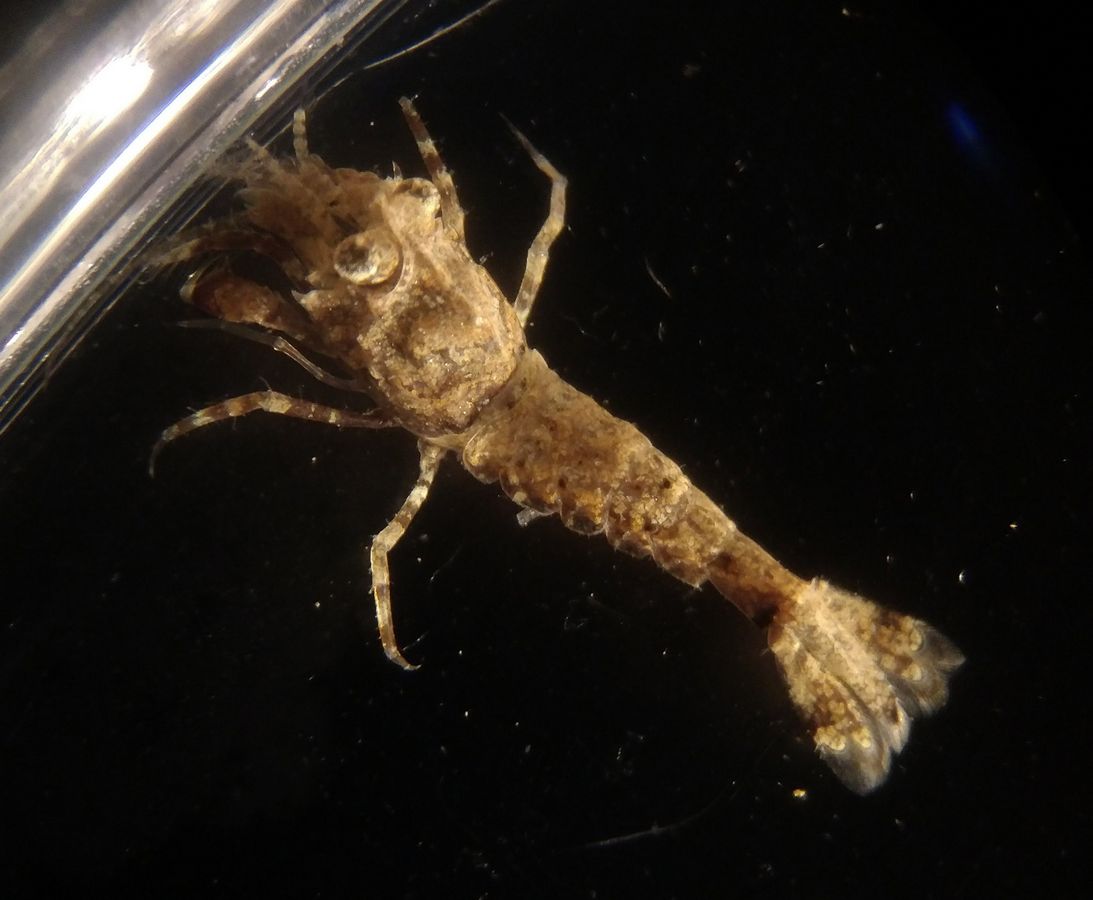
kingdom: Animalia
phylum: Arthropoda
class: Malacostraca
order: Decapoda
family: Crangonidae
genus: Sclerocrangon
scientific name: Sclerocrangon boreas
